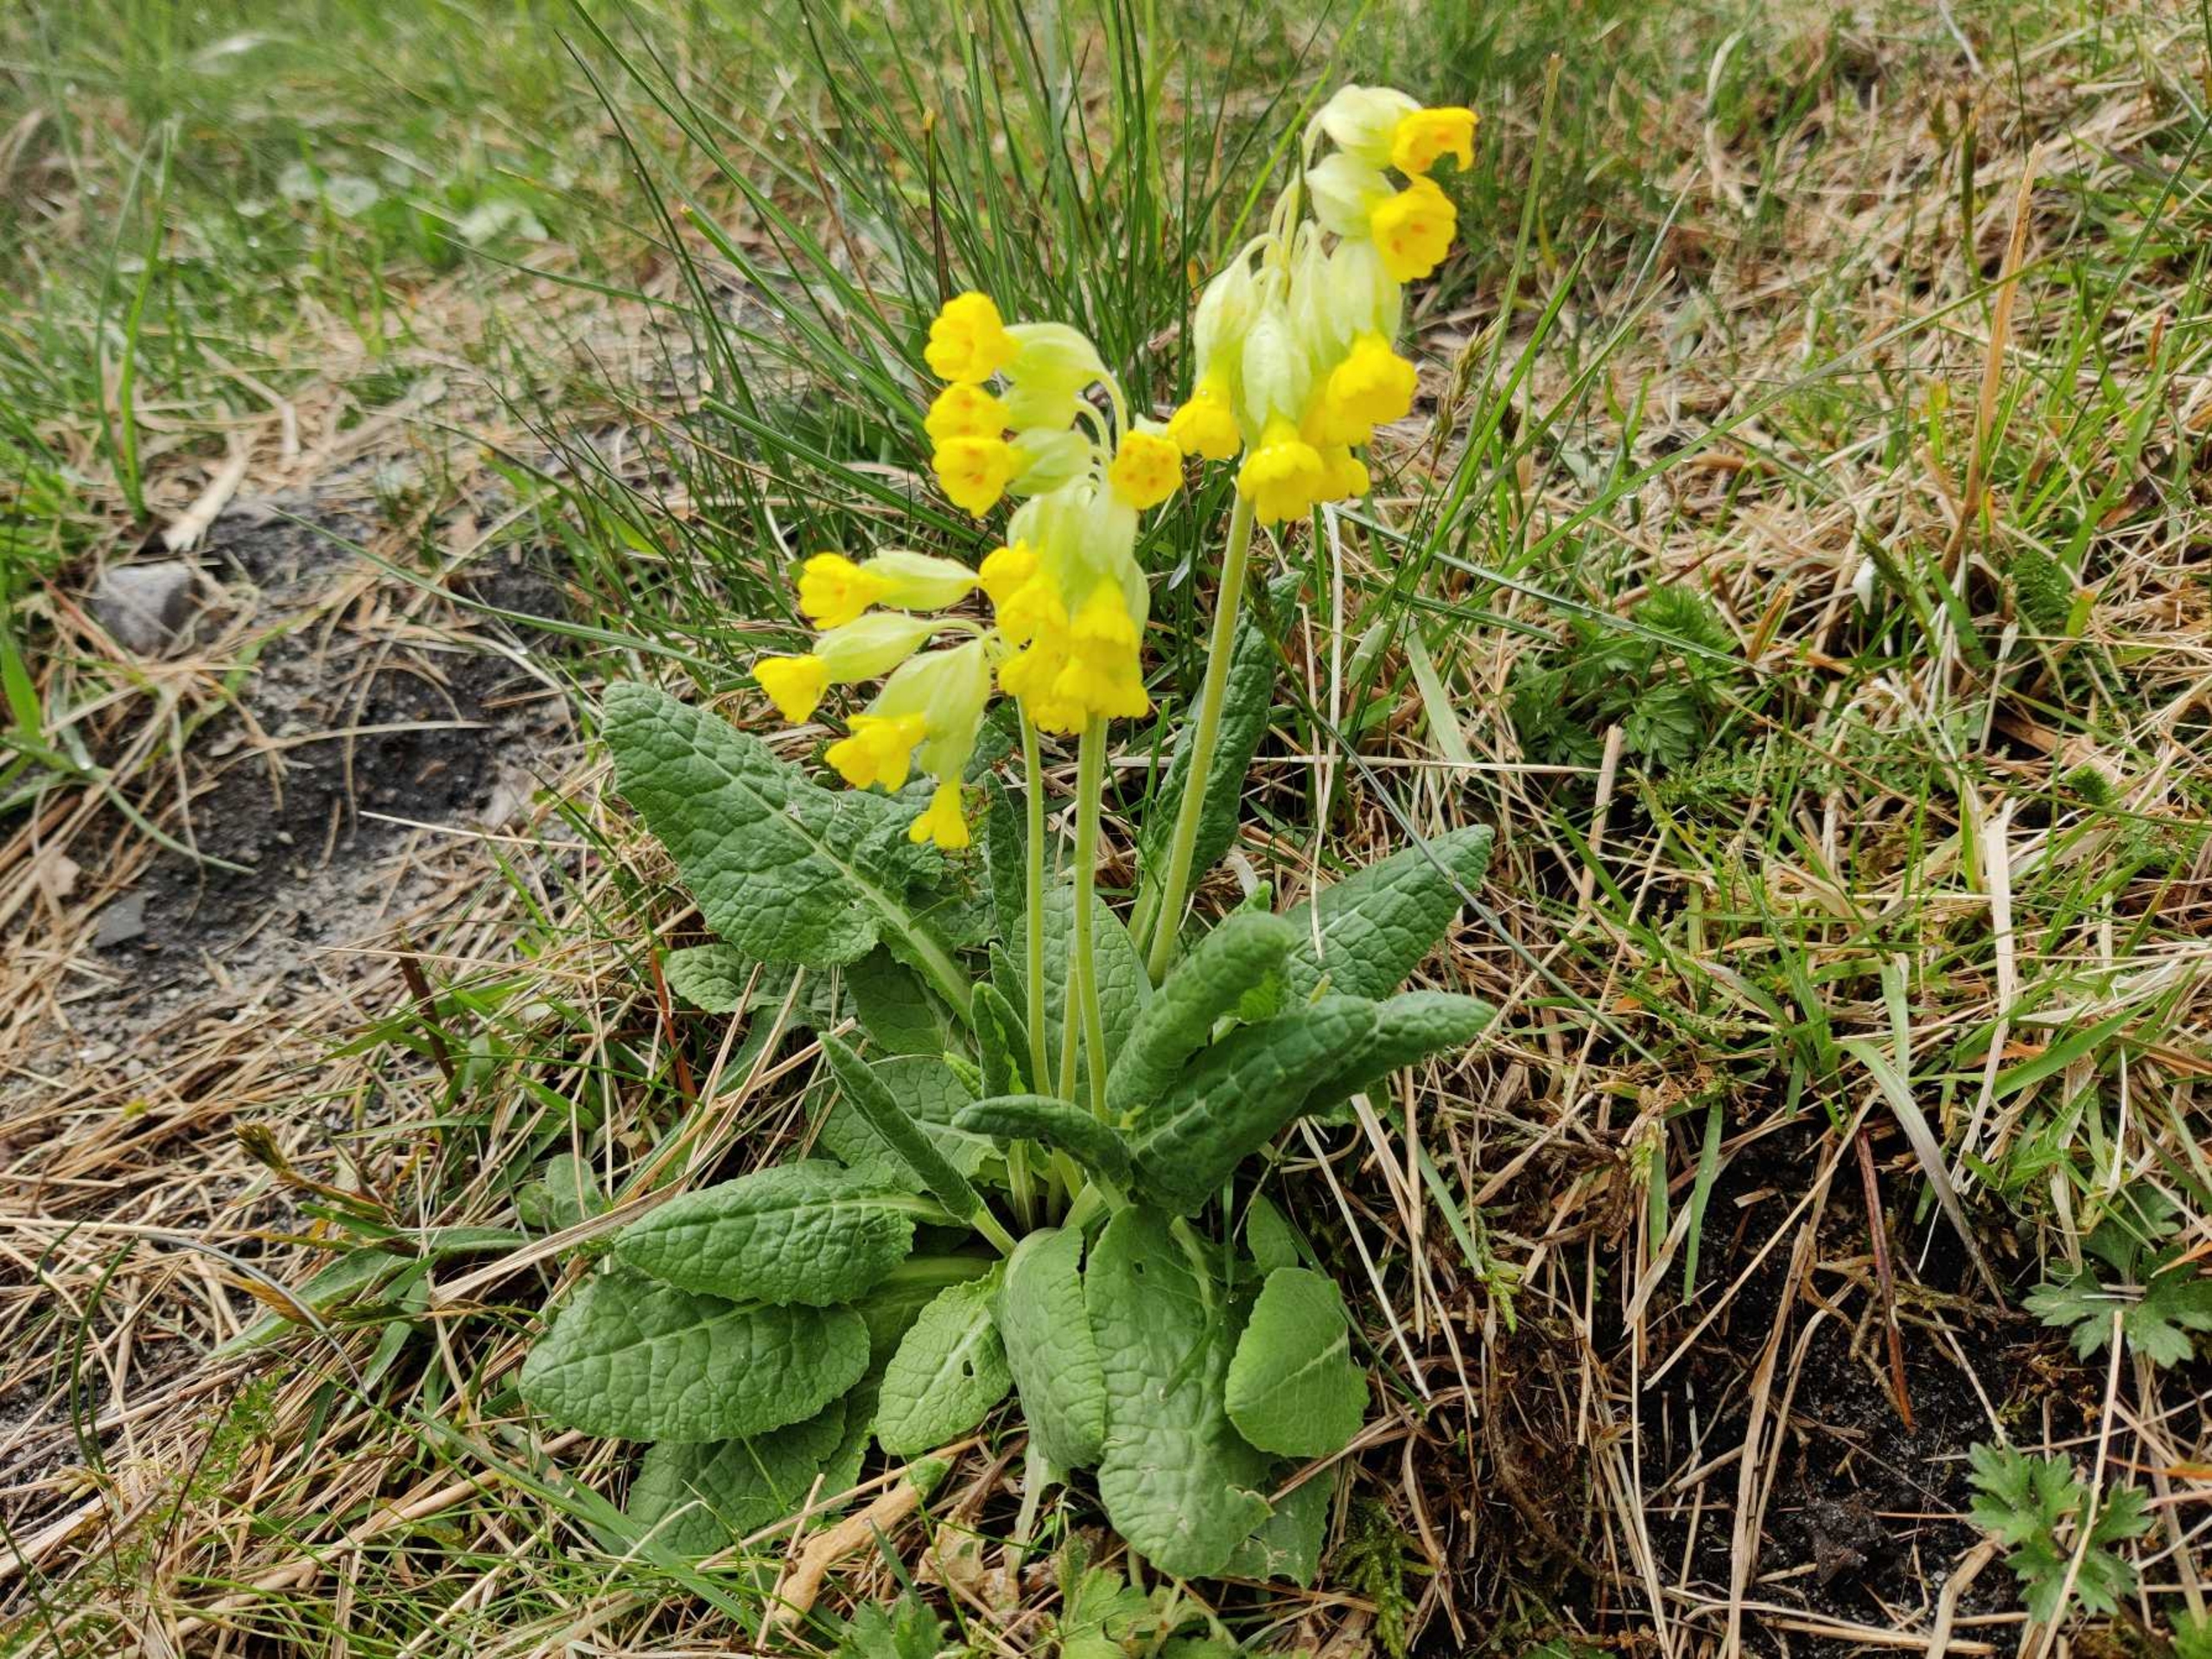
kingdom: Plantae
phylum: Tracheophyta
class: Magnoliopsida
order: Ericales
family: Primulaceae
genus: Primula
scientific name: Primula veris
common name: Hulkravet kodriver
